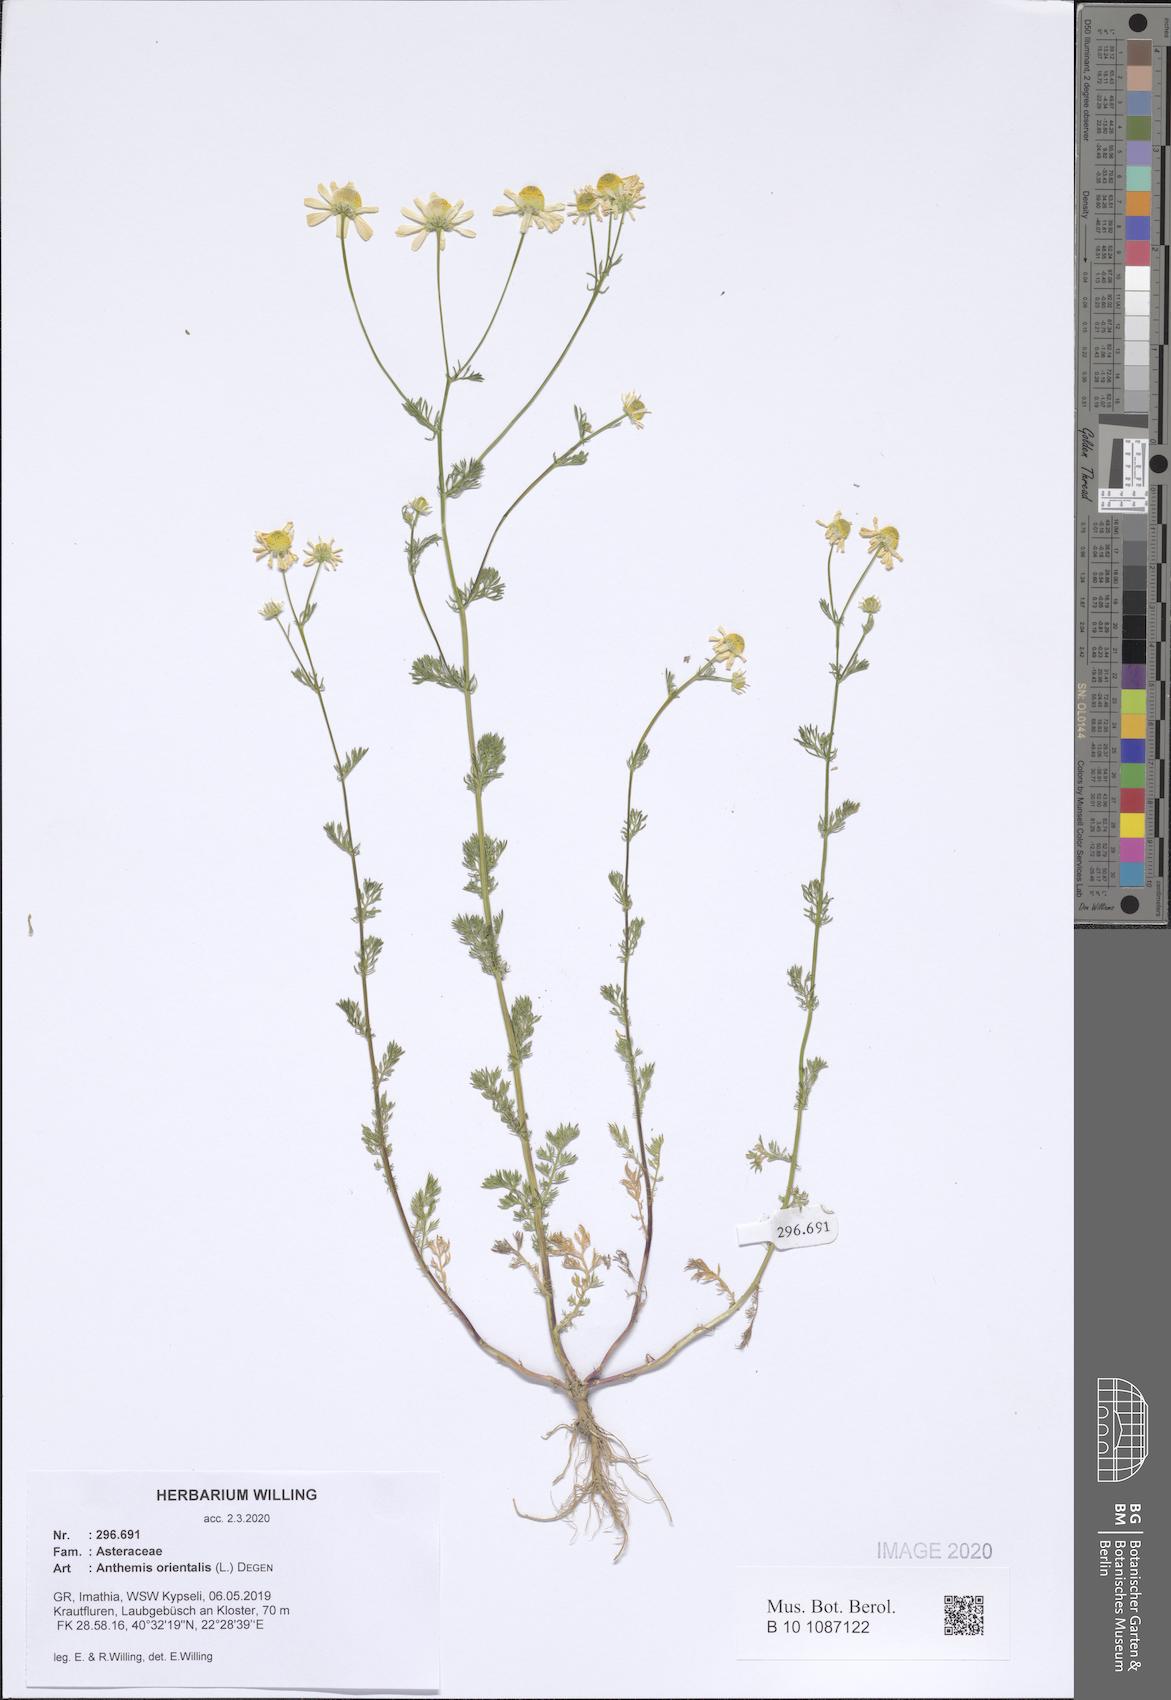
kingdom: Plantae
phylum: Tracheophyta
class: Magnoliopsida
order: Asterales
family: Asteraceae
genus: Matricaria
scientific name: Matricaria chamomilla
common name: Scented mayweed
